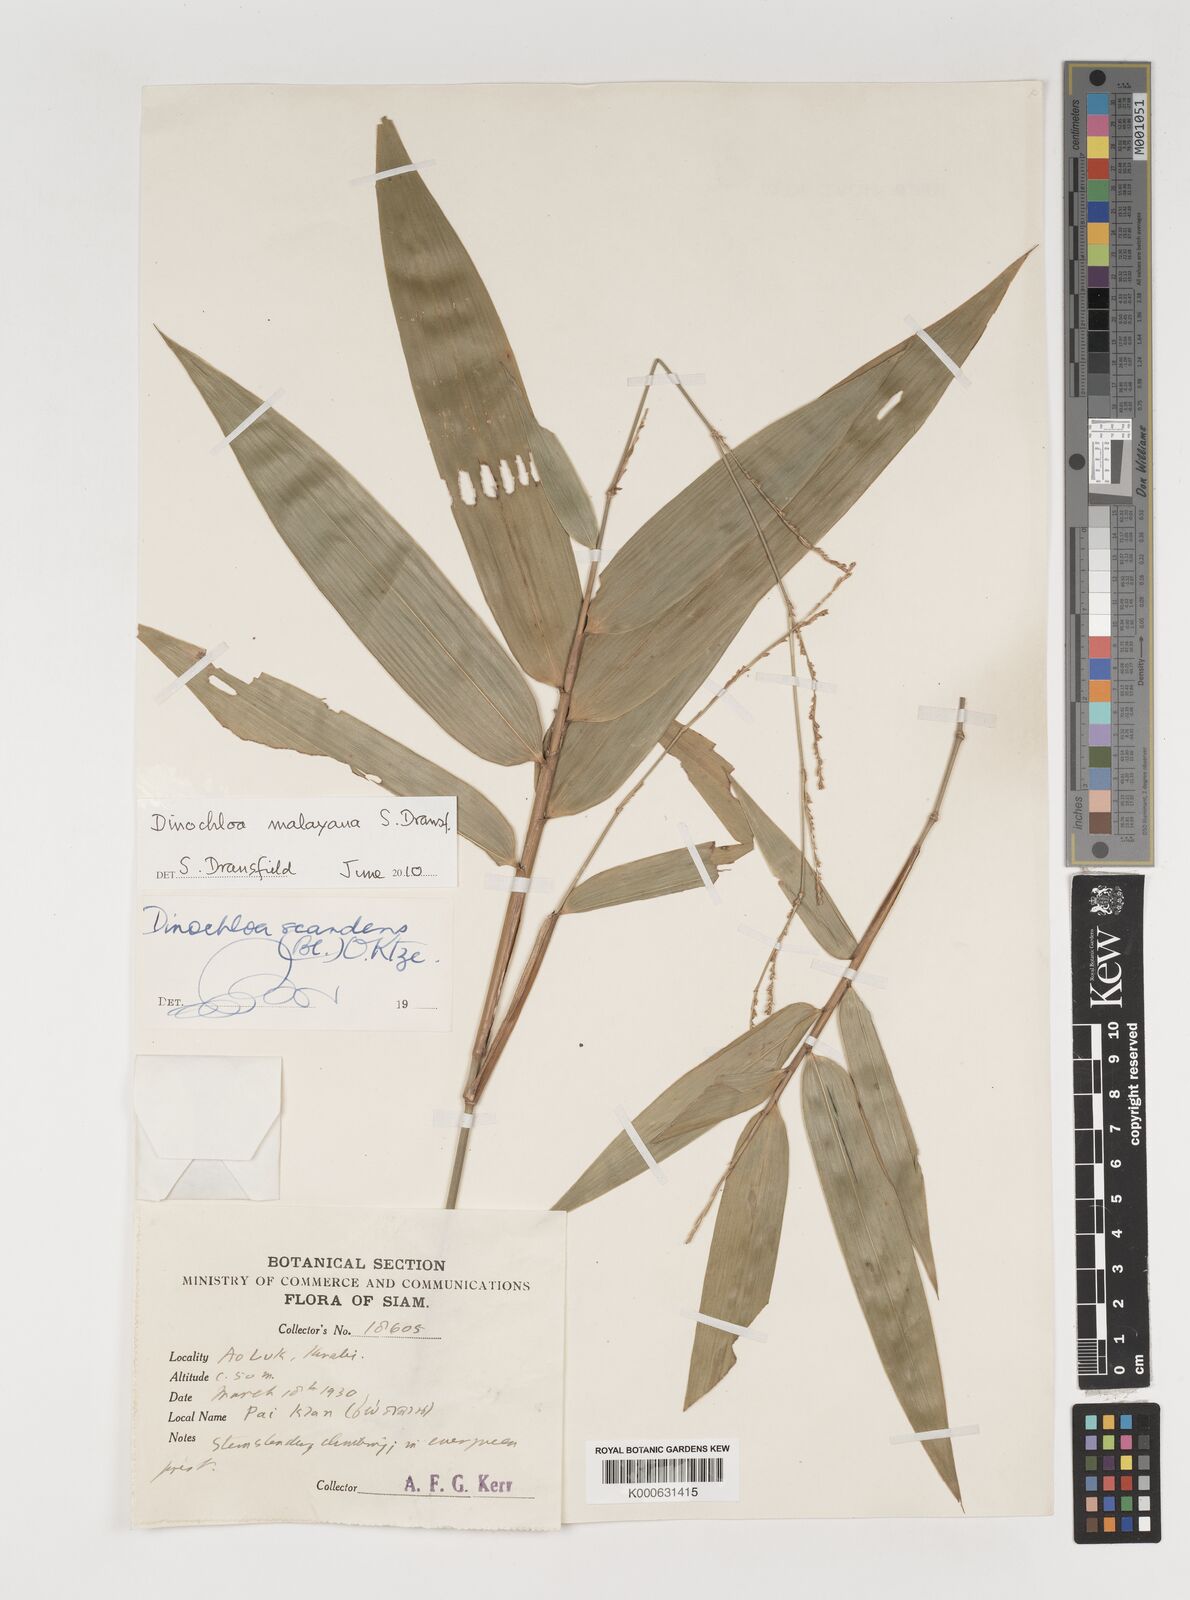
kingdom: Plantae
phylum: Tracheophyta
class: Liliopsida
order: Poales
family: Poaceae
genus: Dinochloa
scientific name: Dinochloa andamanica
